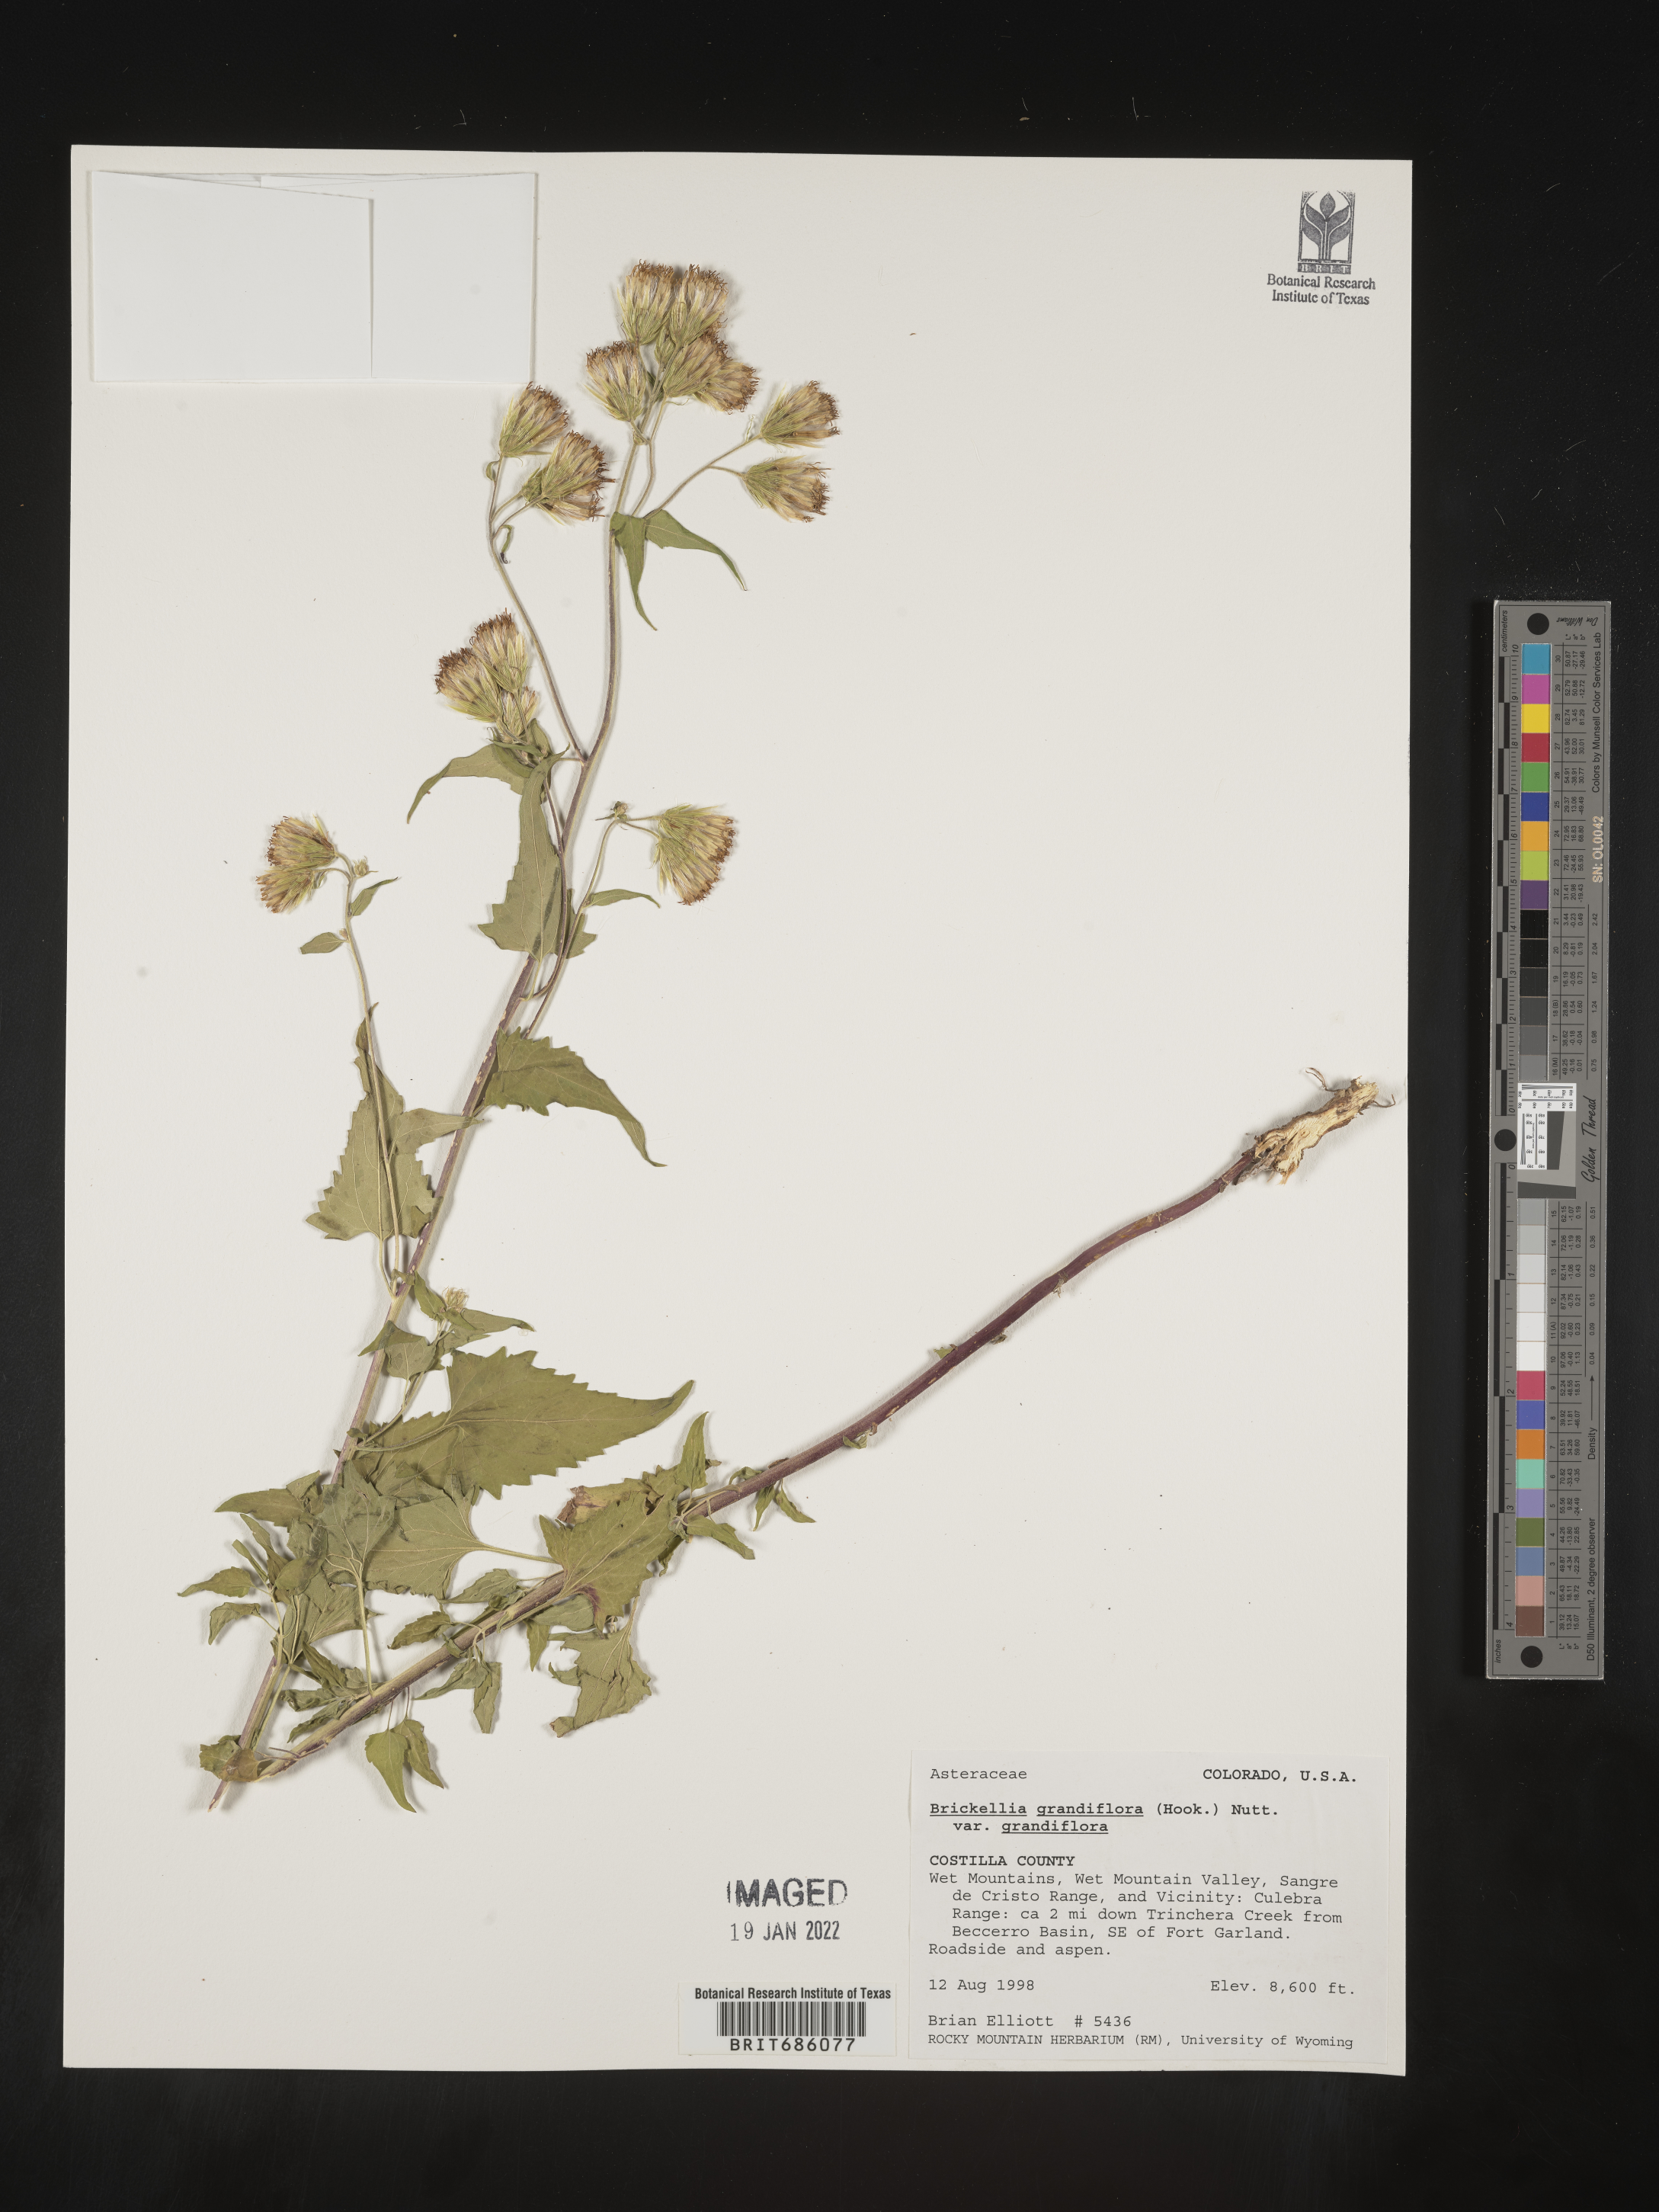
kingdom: Plantae
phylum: Tracheophyta
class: Magnoliopsida
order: Asterales
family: Asteraceae
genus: Brickellia
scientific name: Brickellia grandiflora
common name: Large-flowered brickellia
